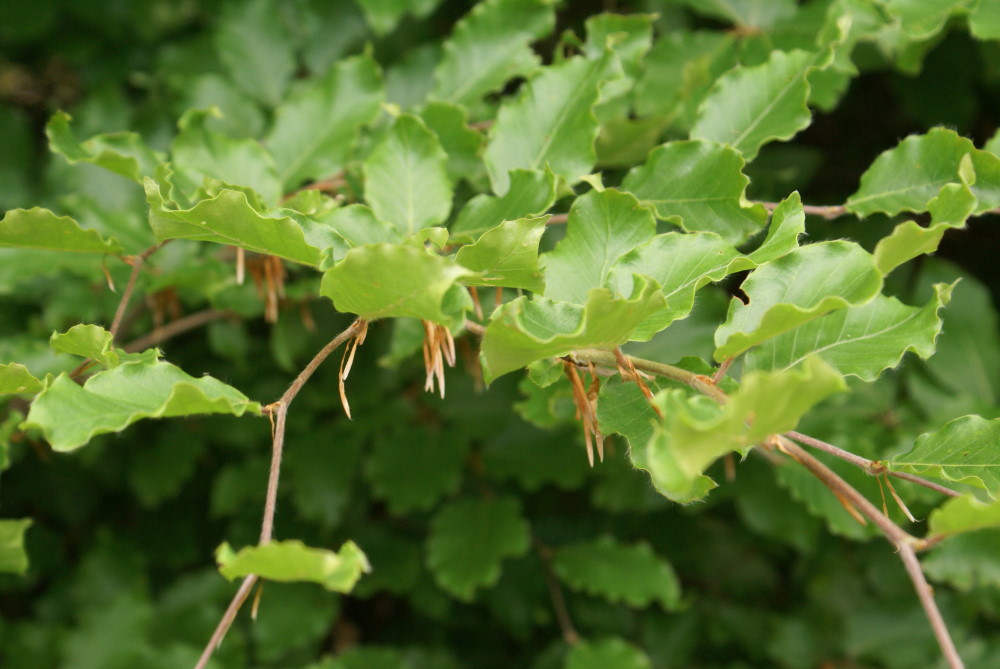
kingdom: Plantae
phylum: Tracheophyta
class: Magnoliopsida
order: Fagales
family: Fagaceae
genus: Fagus
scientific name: Fagus sylvatica
